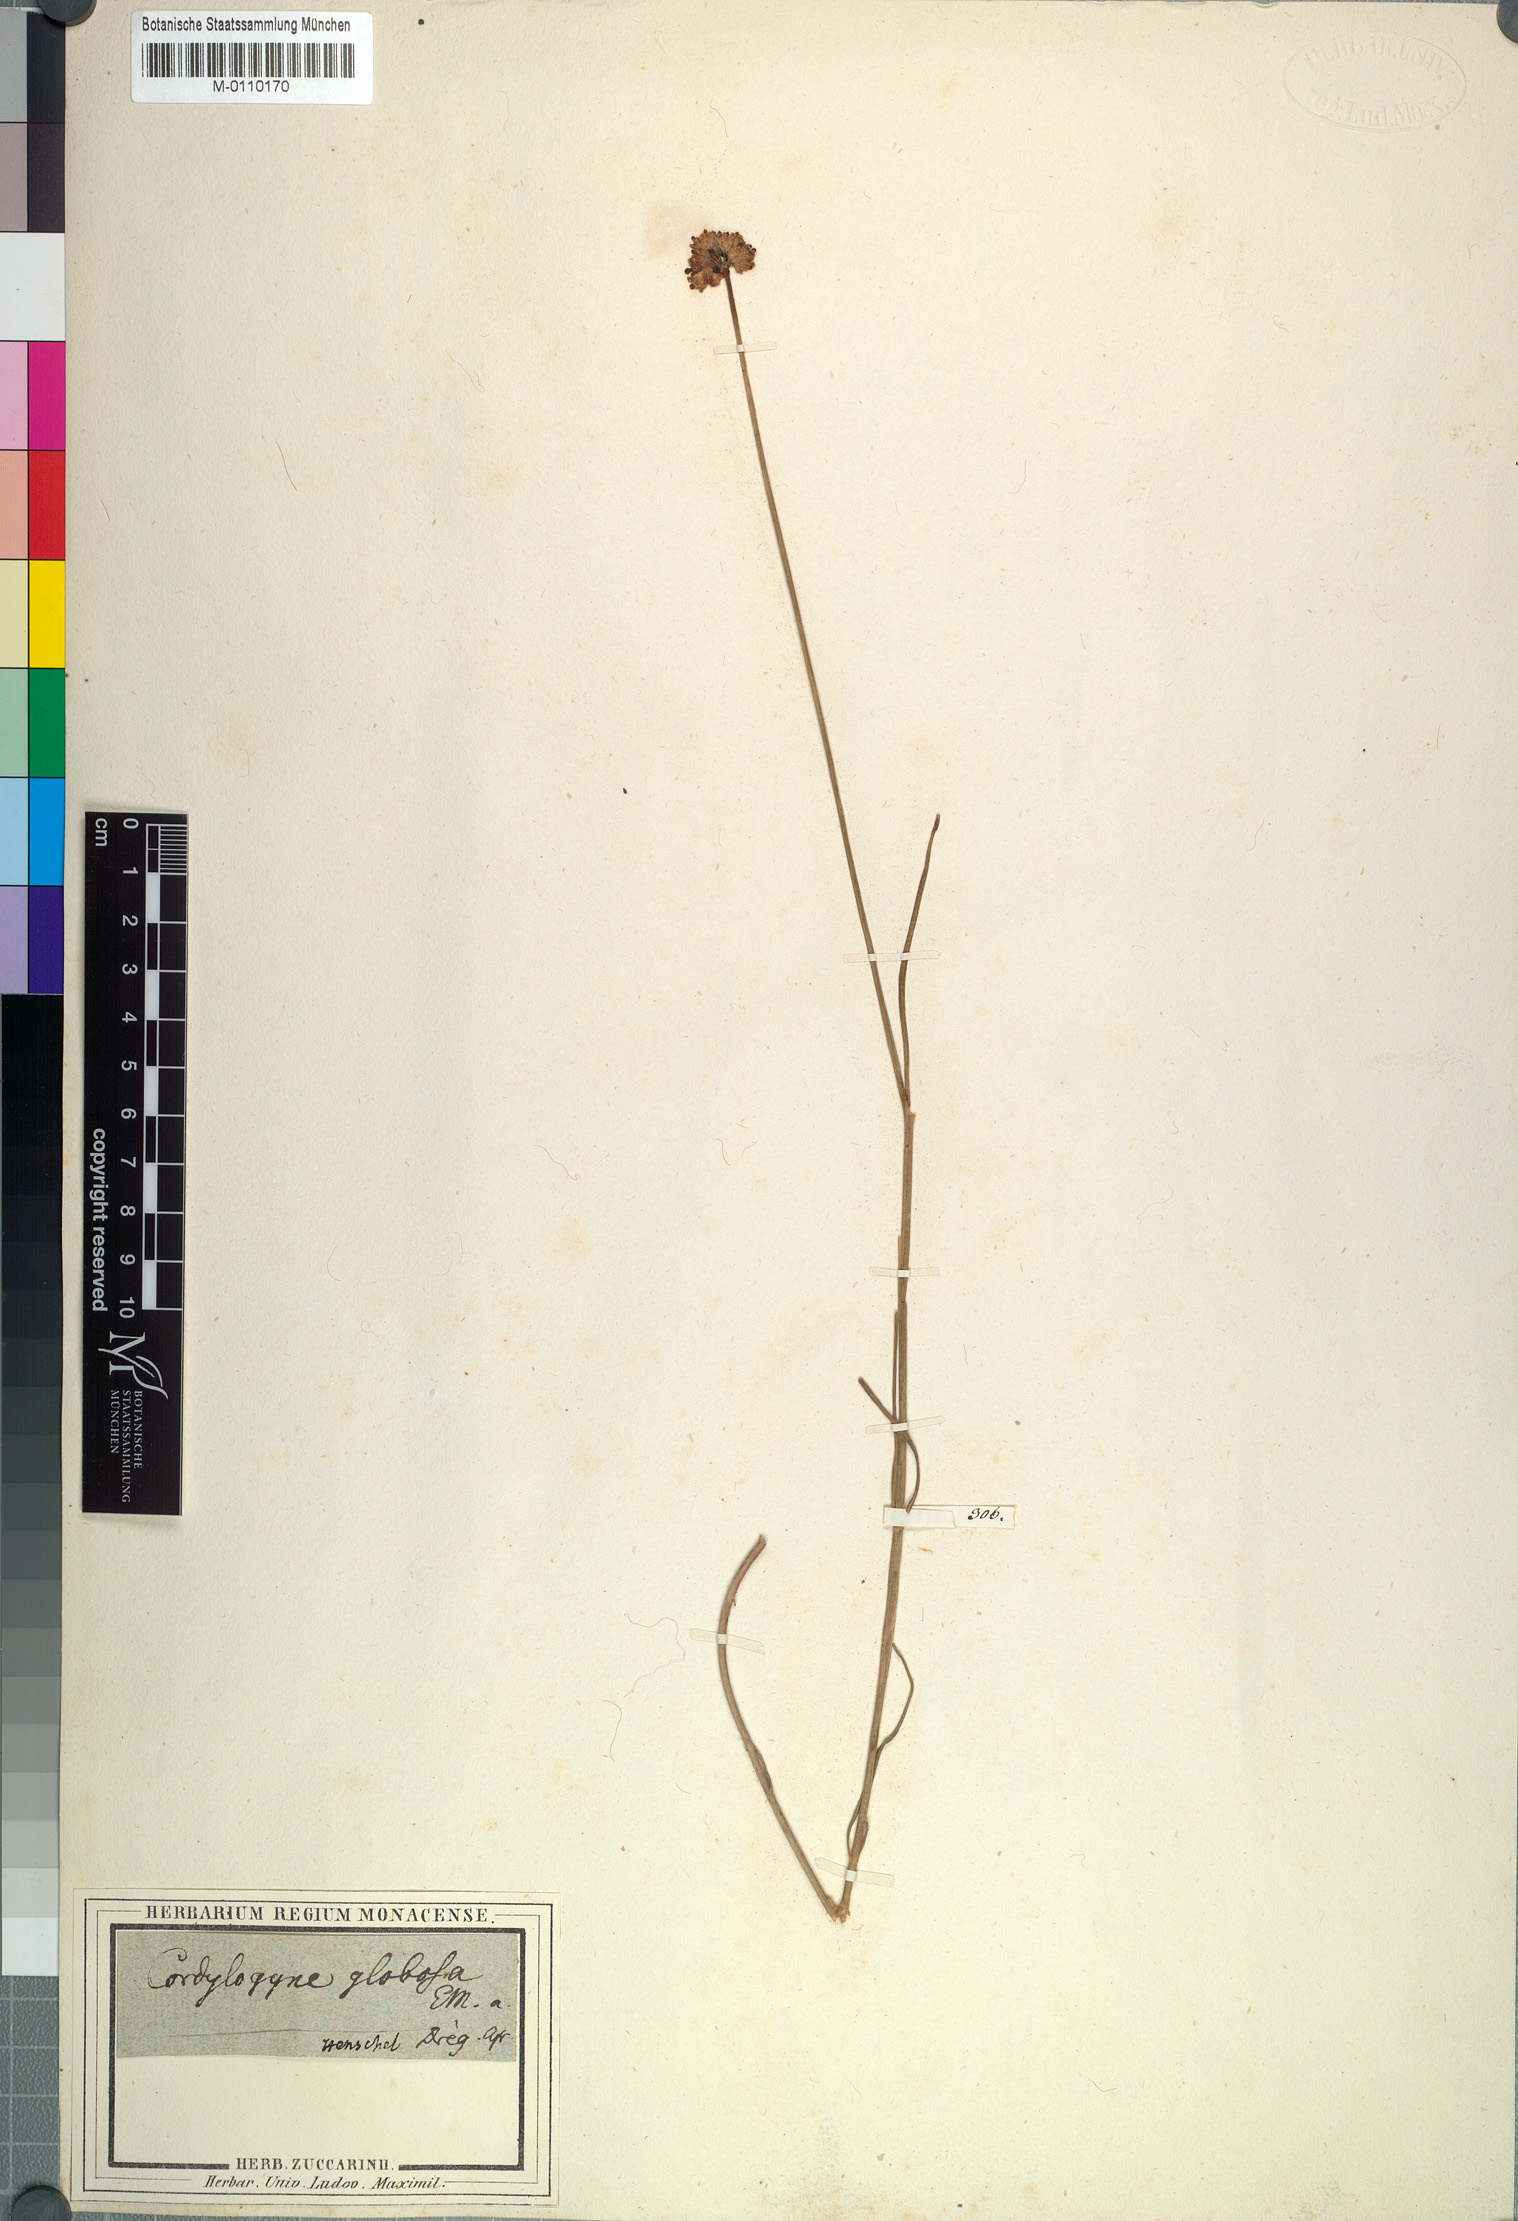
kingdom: Plantae
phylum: Tracheophyta
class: Magnoliopsida
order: Gentianales
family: Apocynaceae
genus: Cordylogyne
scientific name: Cordylogyne globosa
